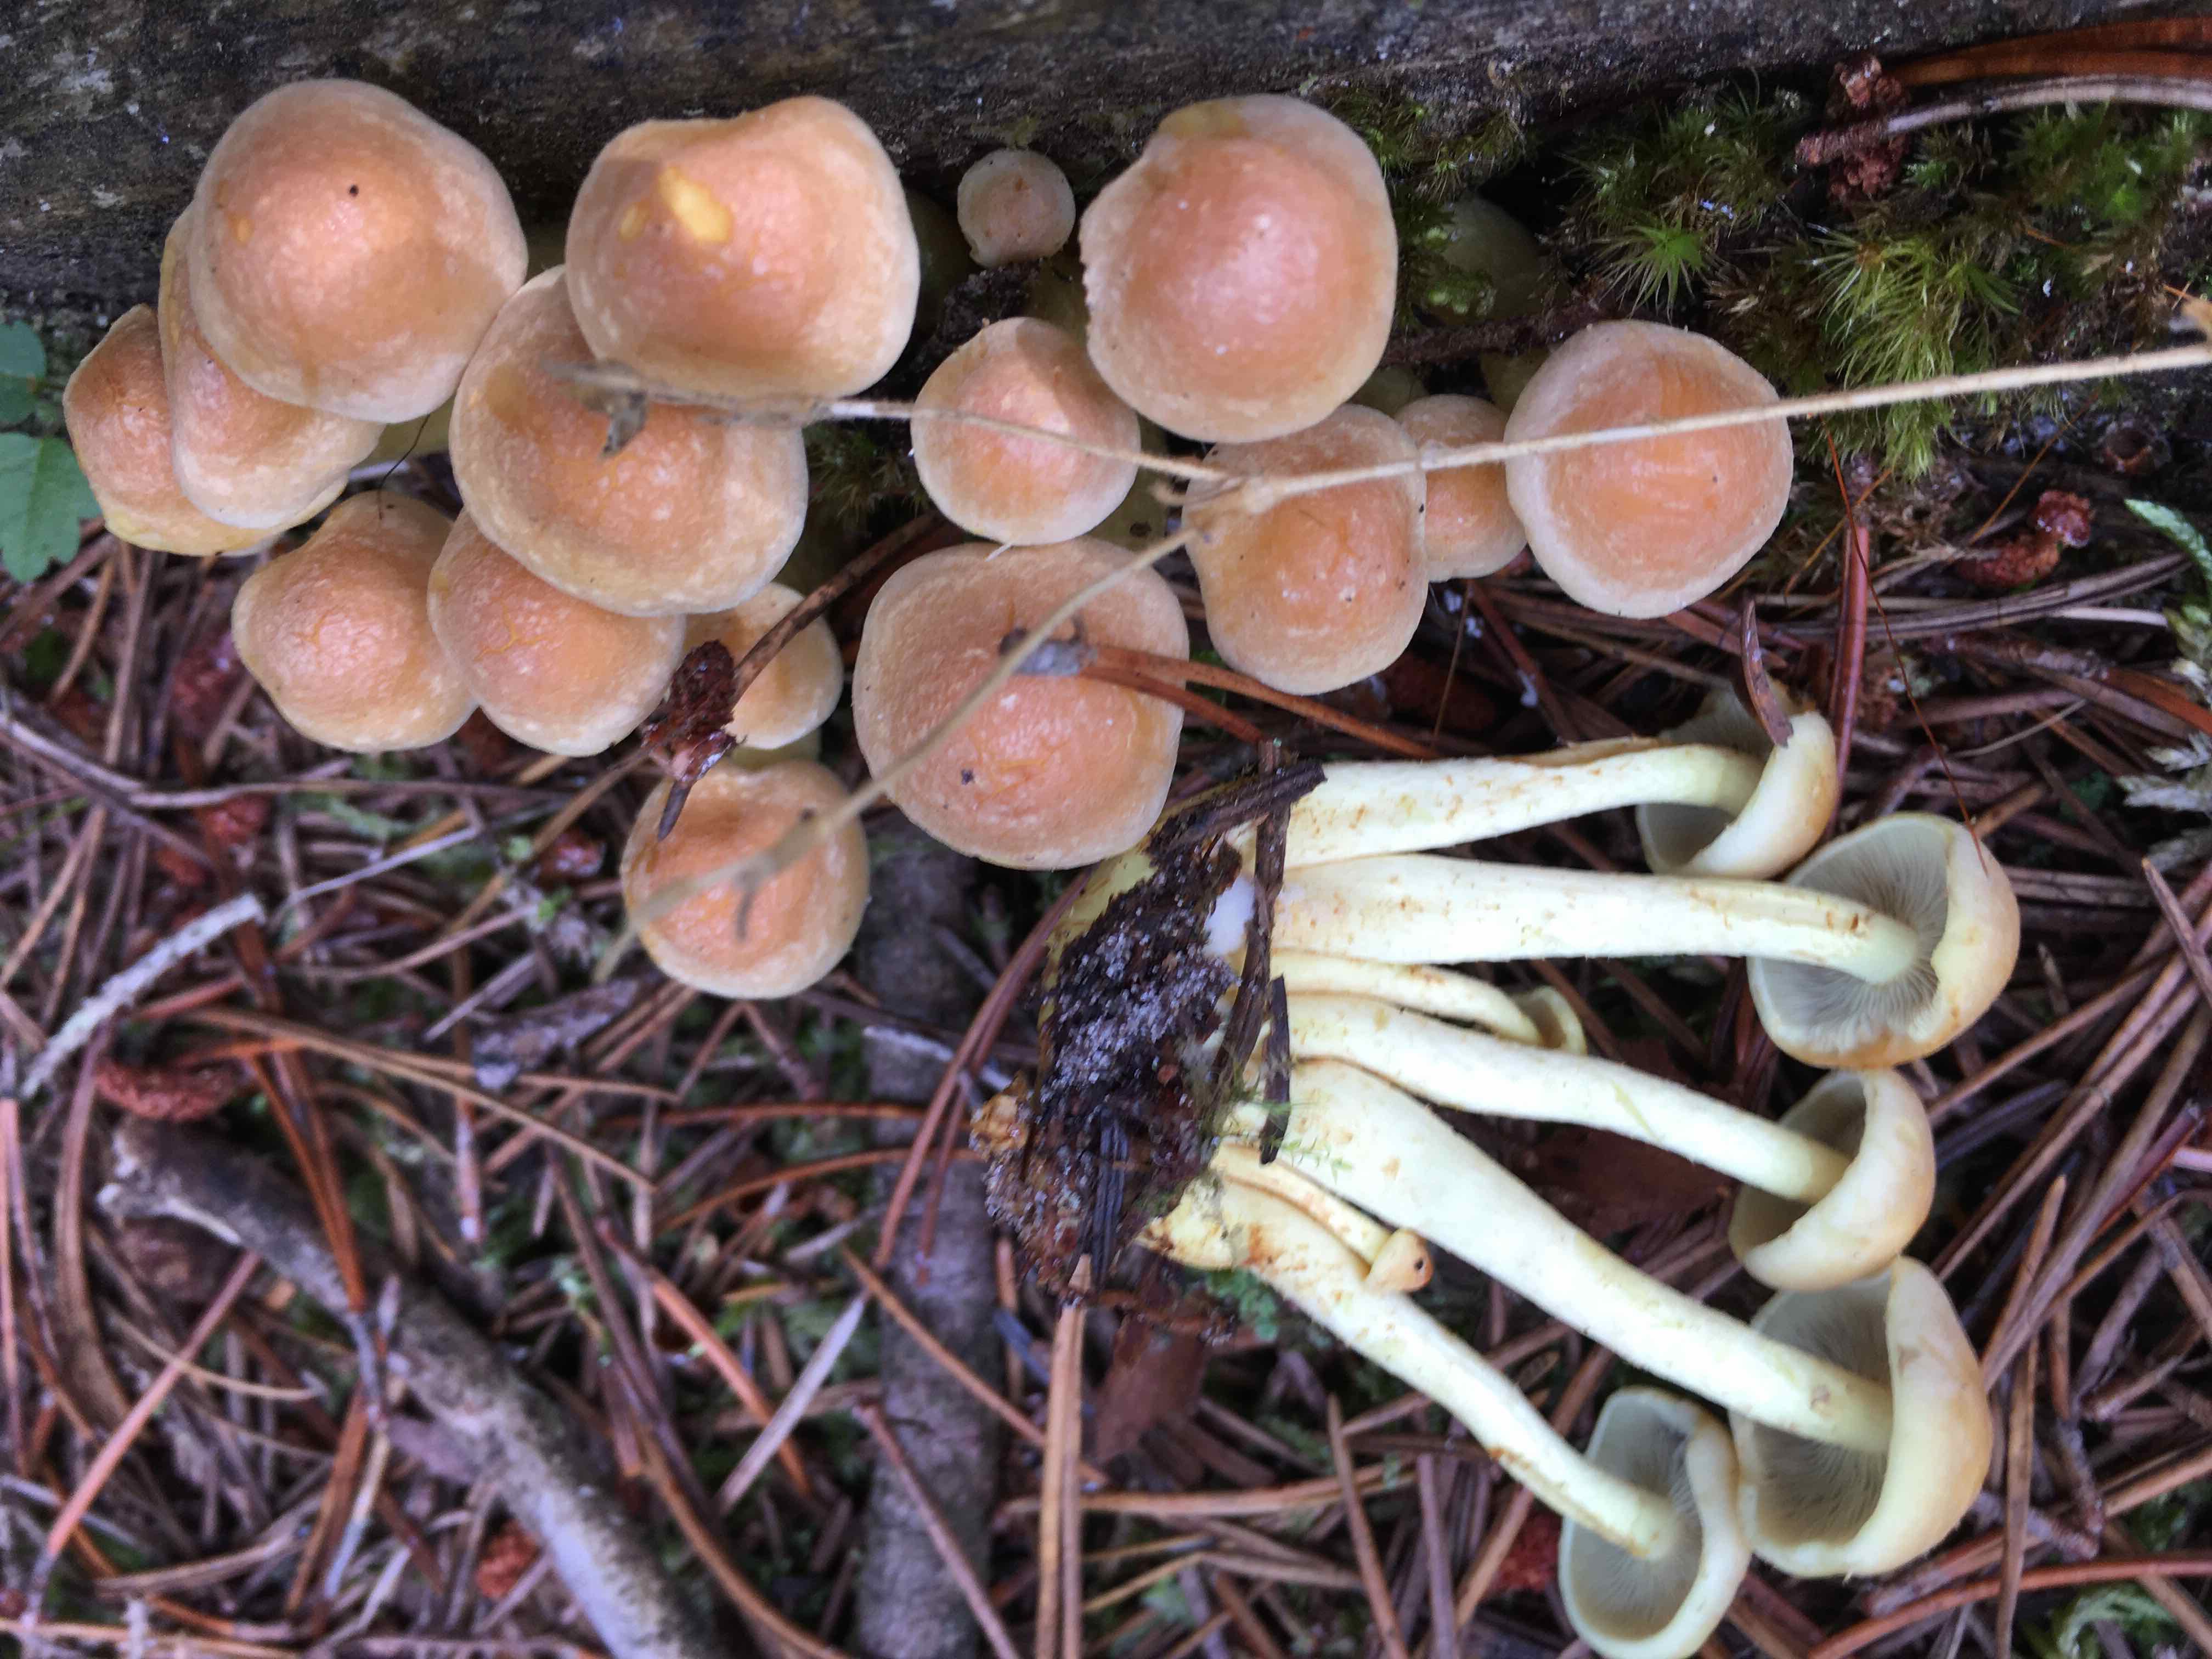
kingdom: Fungi
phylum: Basidiomycota
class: Agaricomycetes
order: Agaricales
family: Strophariaceae
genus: Hypholoma
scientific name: Hypholoma fasciculare
